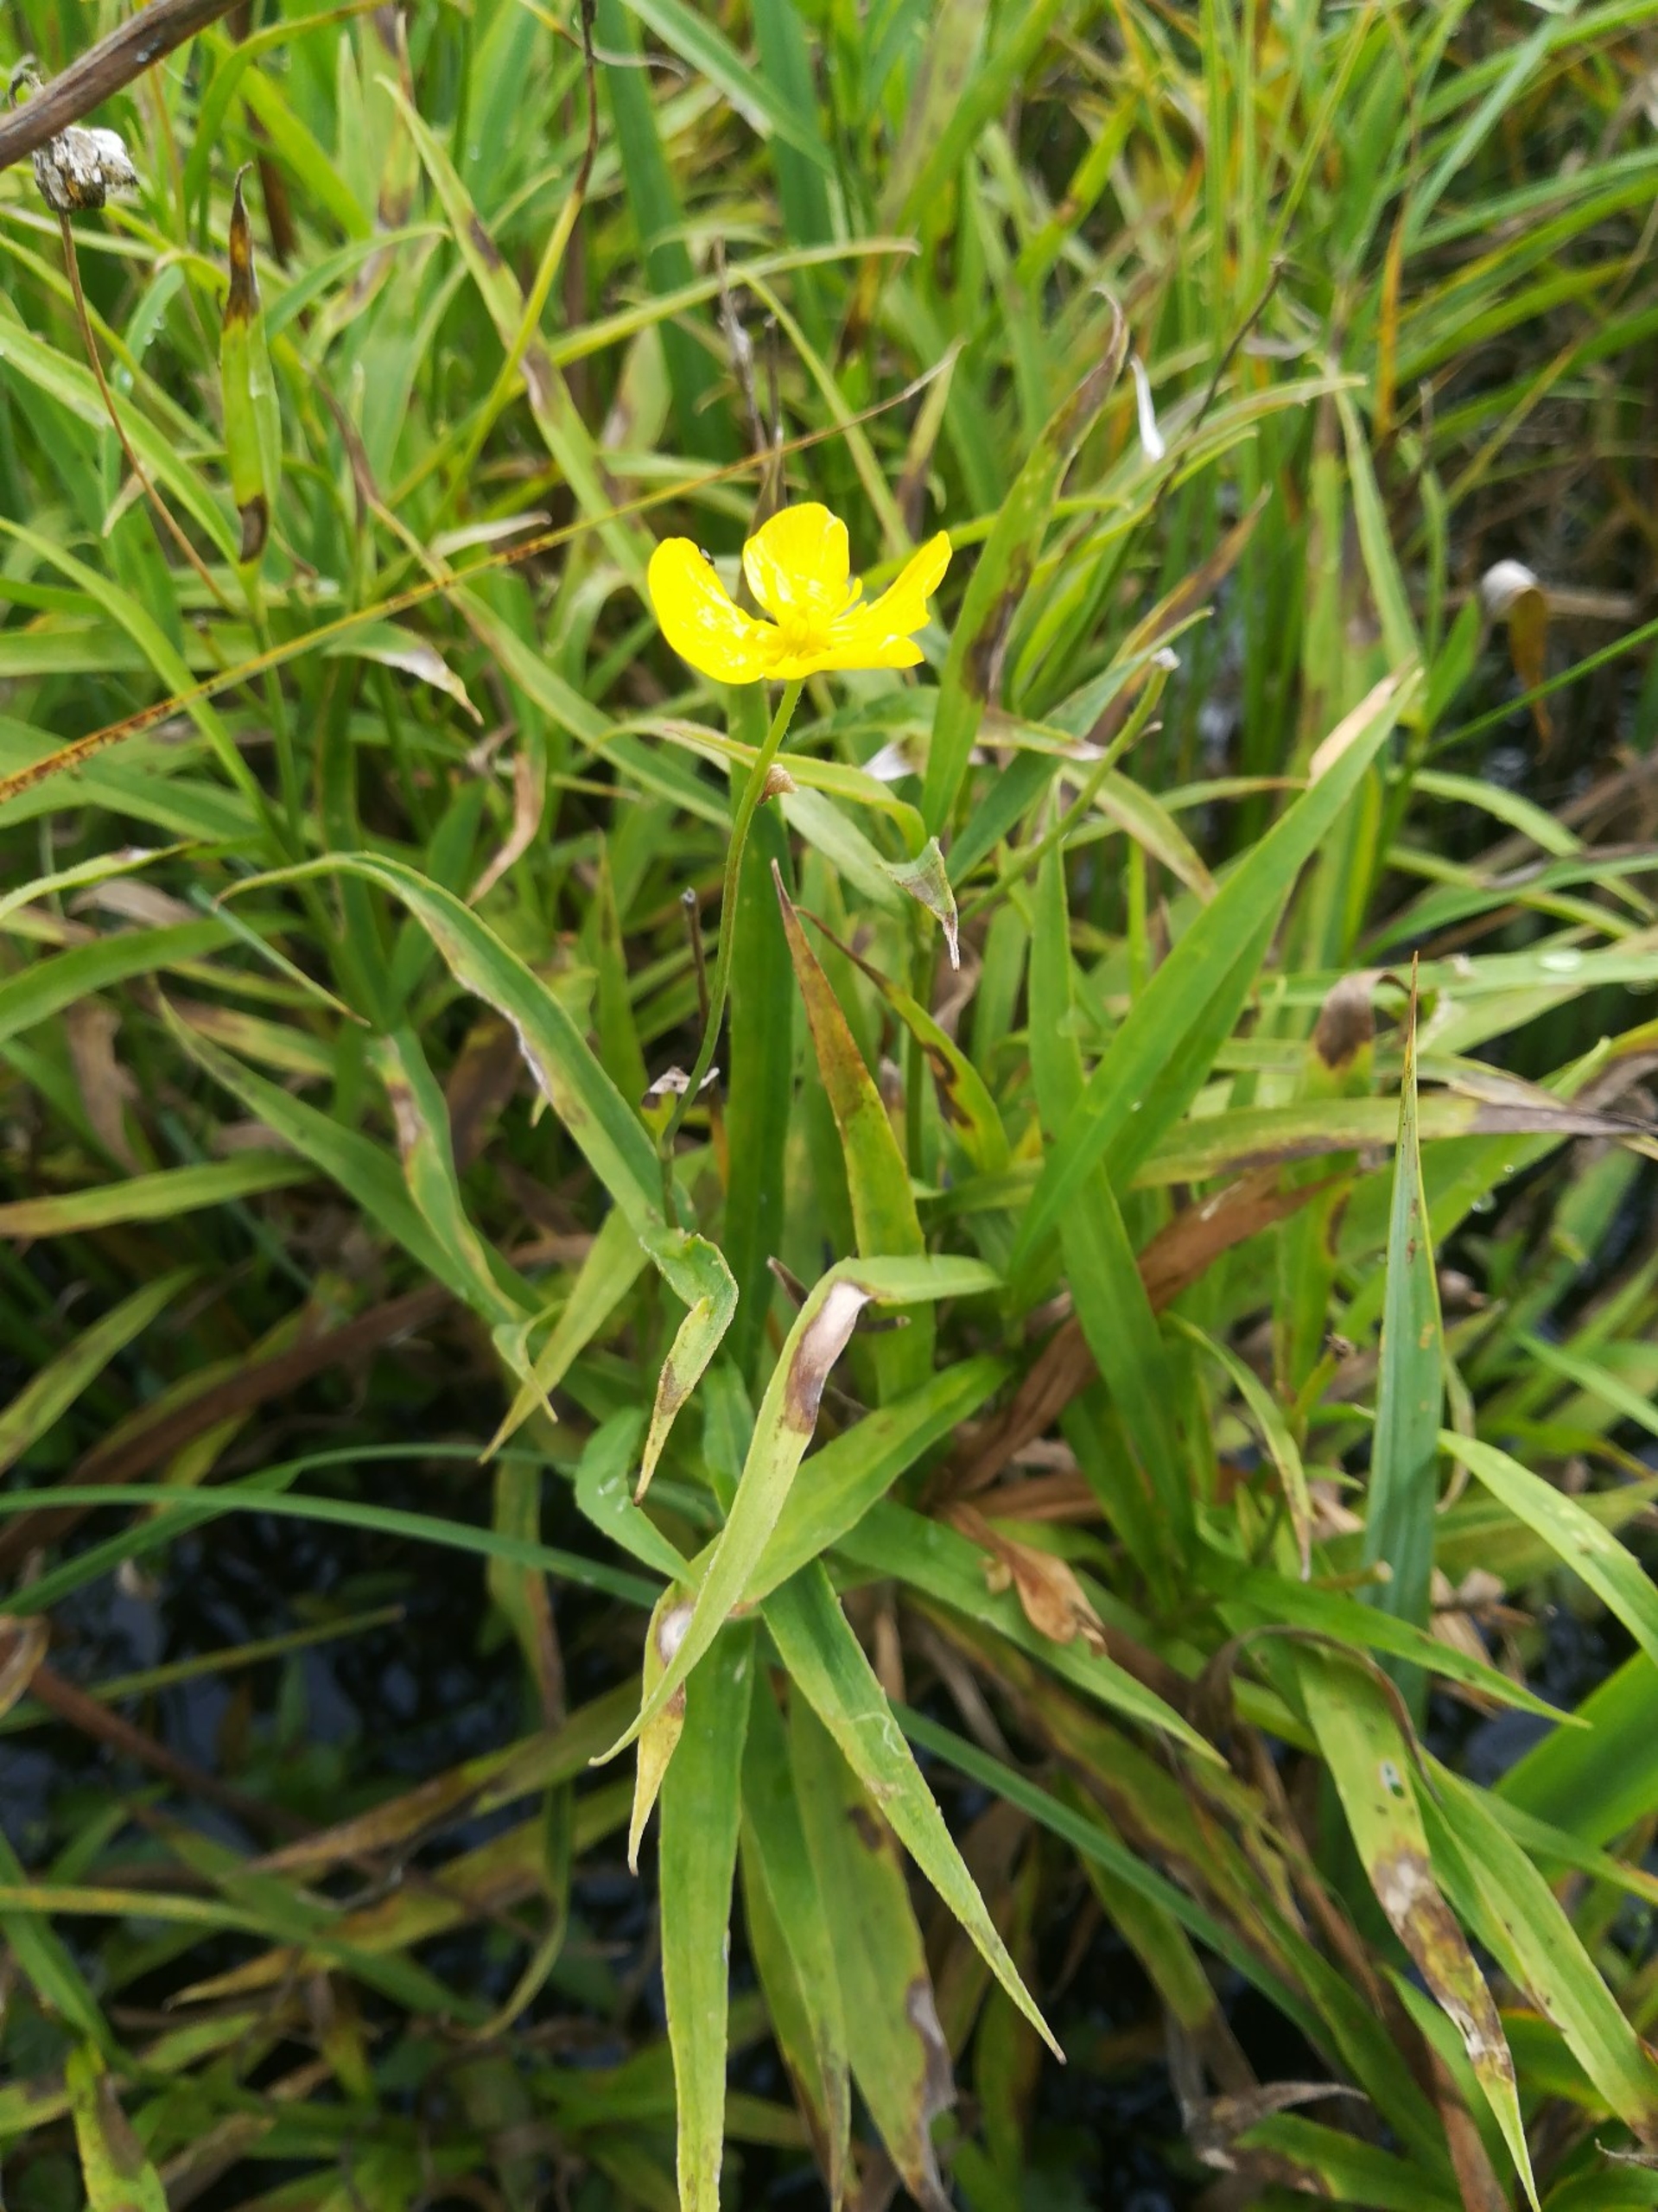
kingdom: Plantae
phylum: Tracheophyta
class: Magnoliopsida
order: Ranunculales
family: Ranunculaceae
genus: Ranunculus
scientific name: Ranunculus lingua
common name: Langbladet ranunkel
